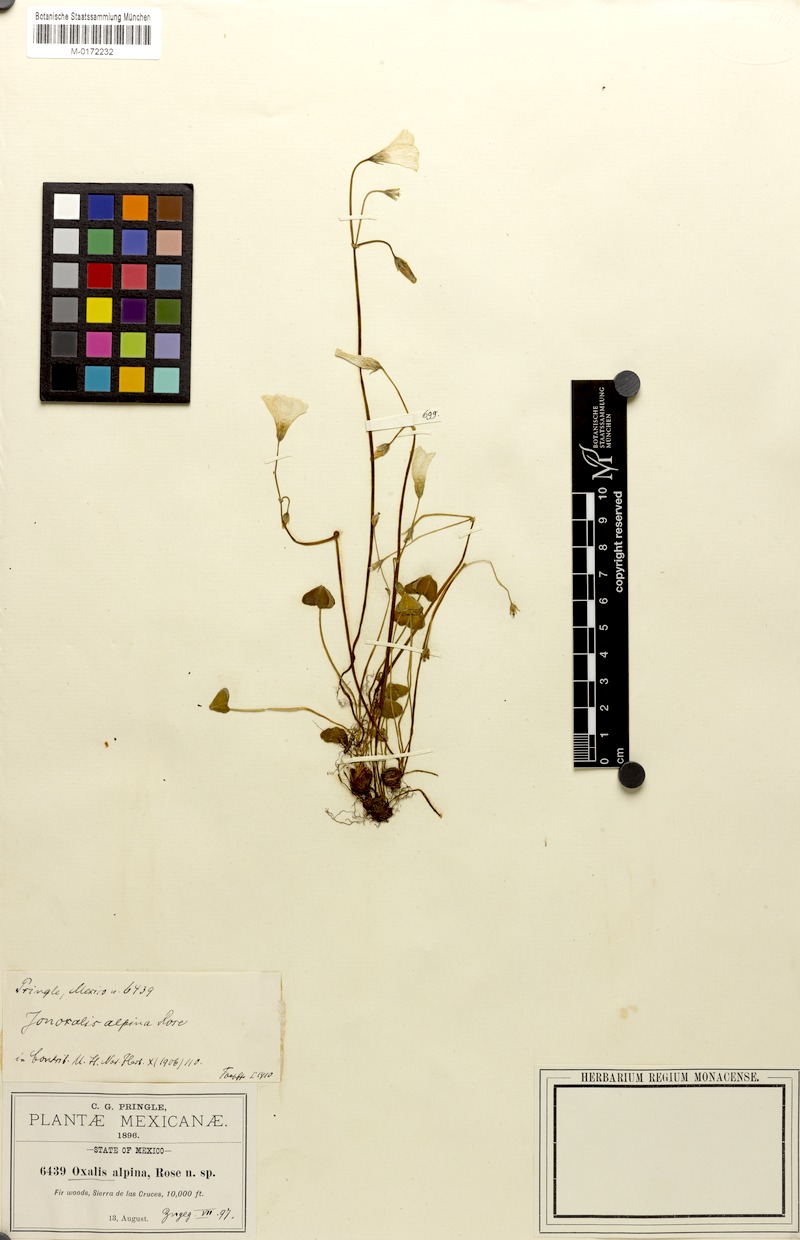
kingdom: Plantae
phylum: Tracheophyta
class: Magnoliopsida
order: Oxalidales
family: Oxalidaceae
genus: Oxalis
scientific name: Oxalis alpina
